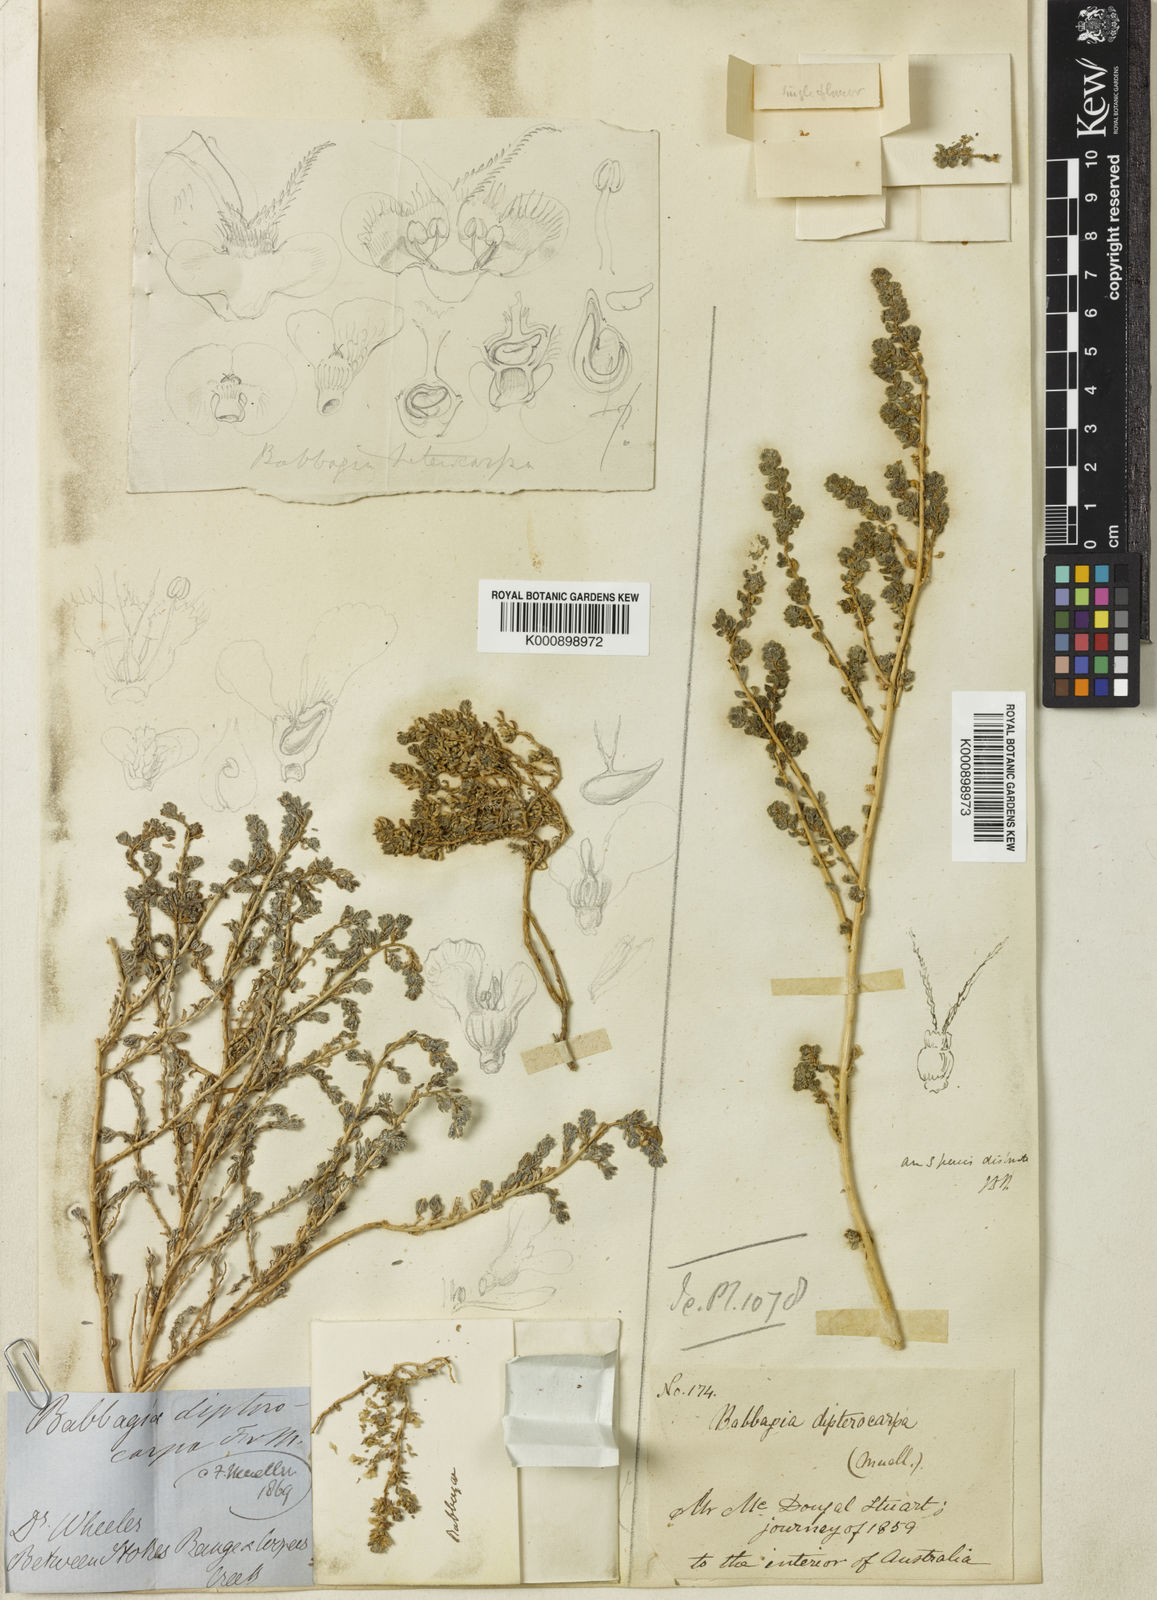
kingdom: Plantae
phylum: Tracheophyta
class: Magnoliopsida
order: Caryophyllales
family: Amaranthaceae
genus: Osteocarpum
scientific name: Osteocarpum dipterocarpum
